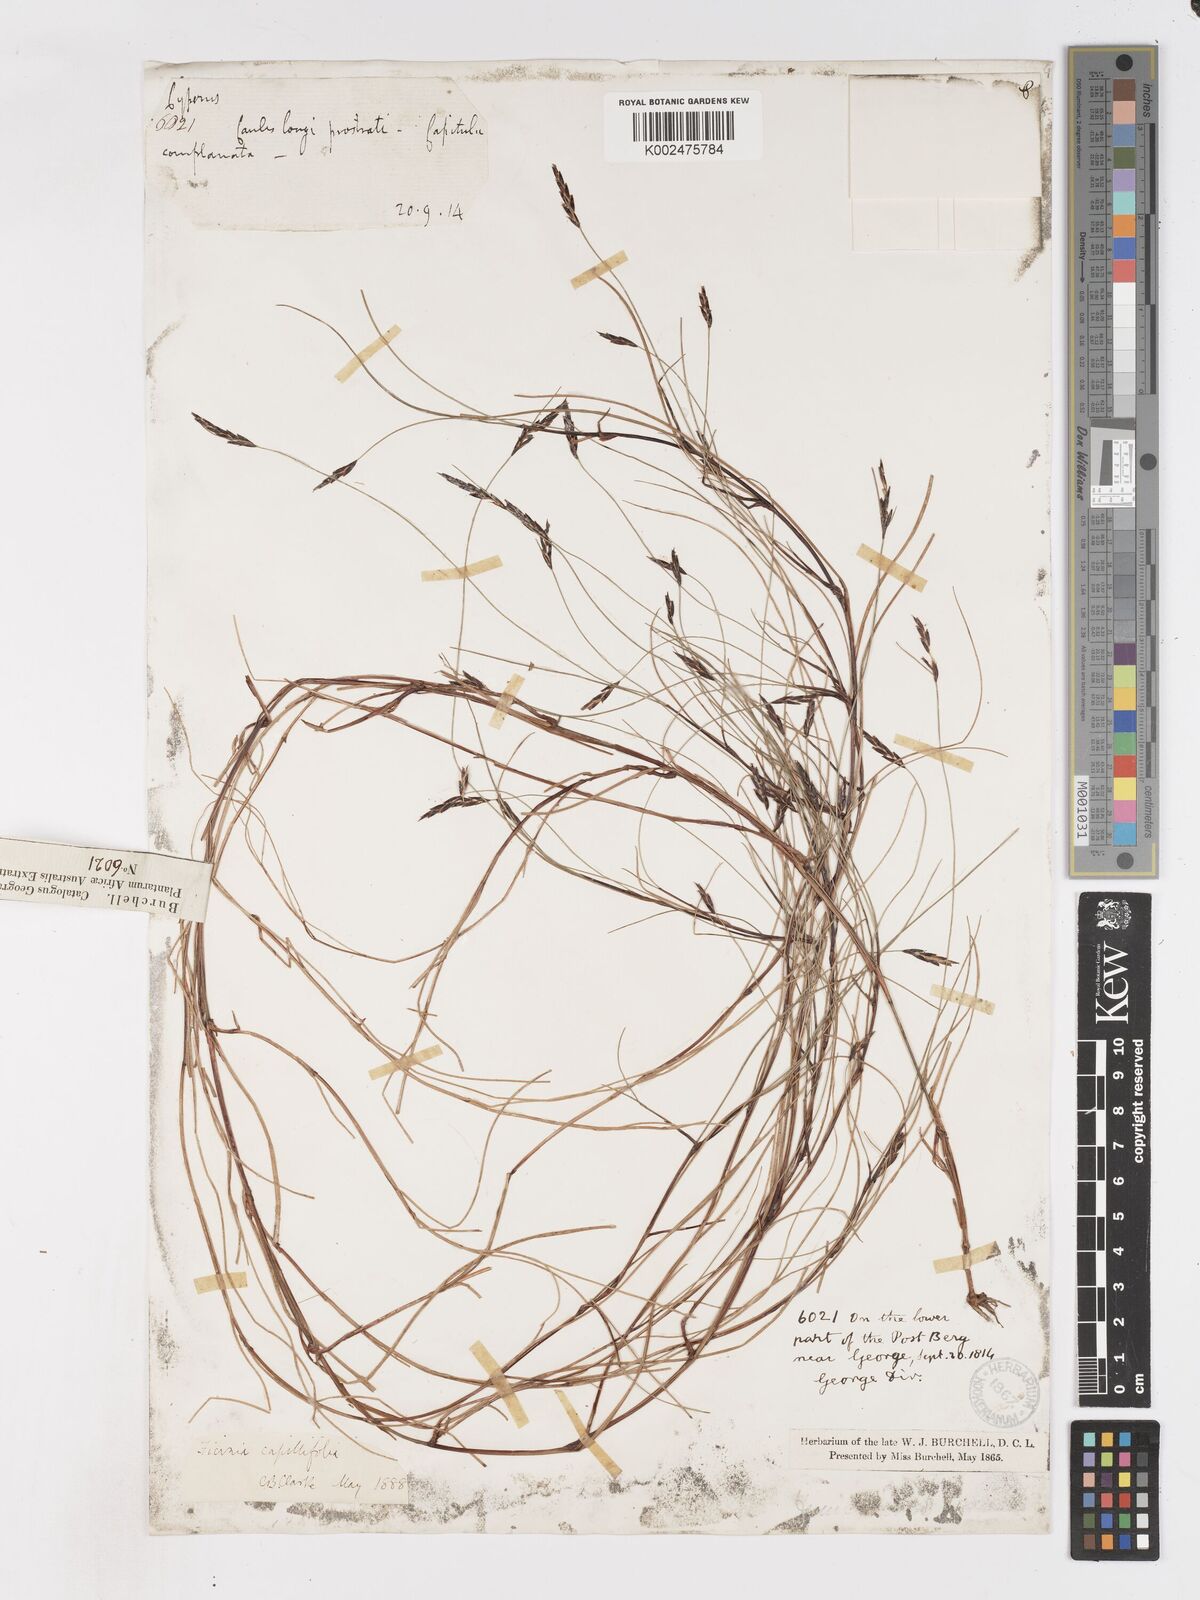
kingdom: Plantae
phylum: Tracheophyta
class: Liliopsida
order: Poales
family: Cyperaceae
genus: Ficinia
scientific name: Ficinia capillifolia
